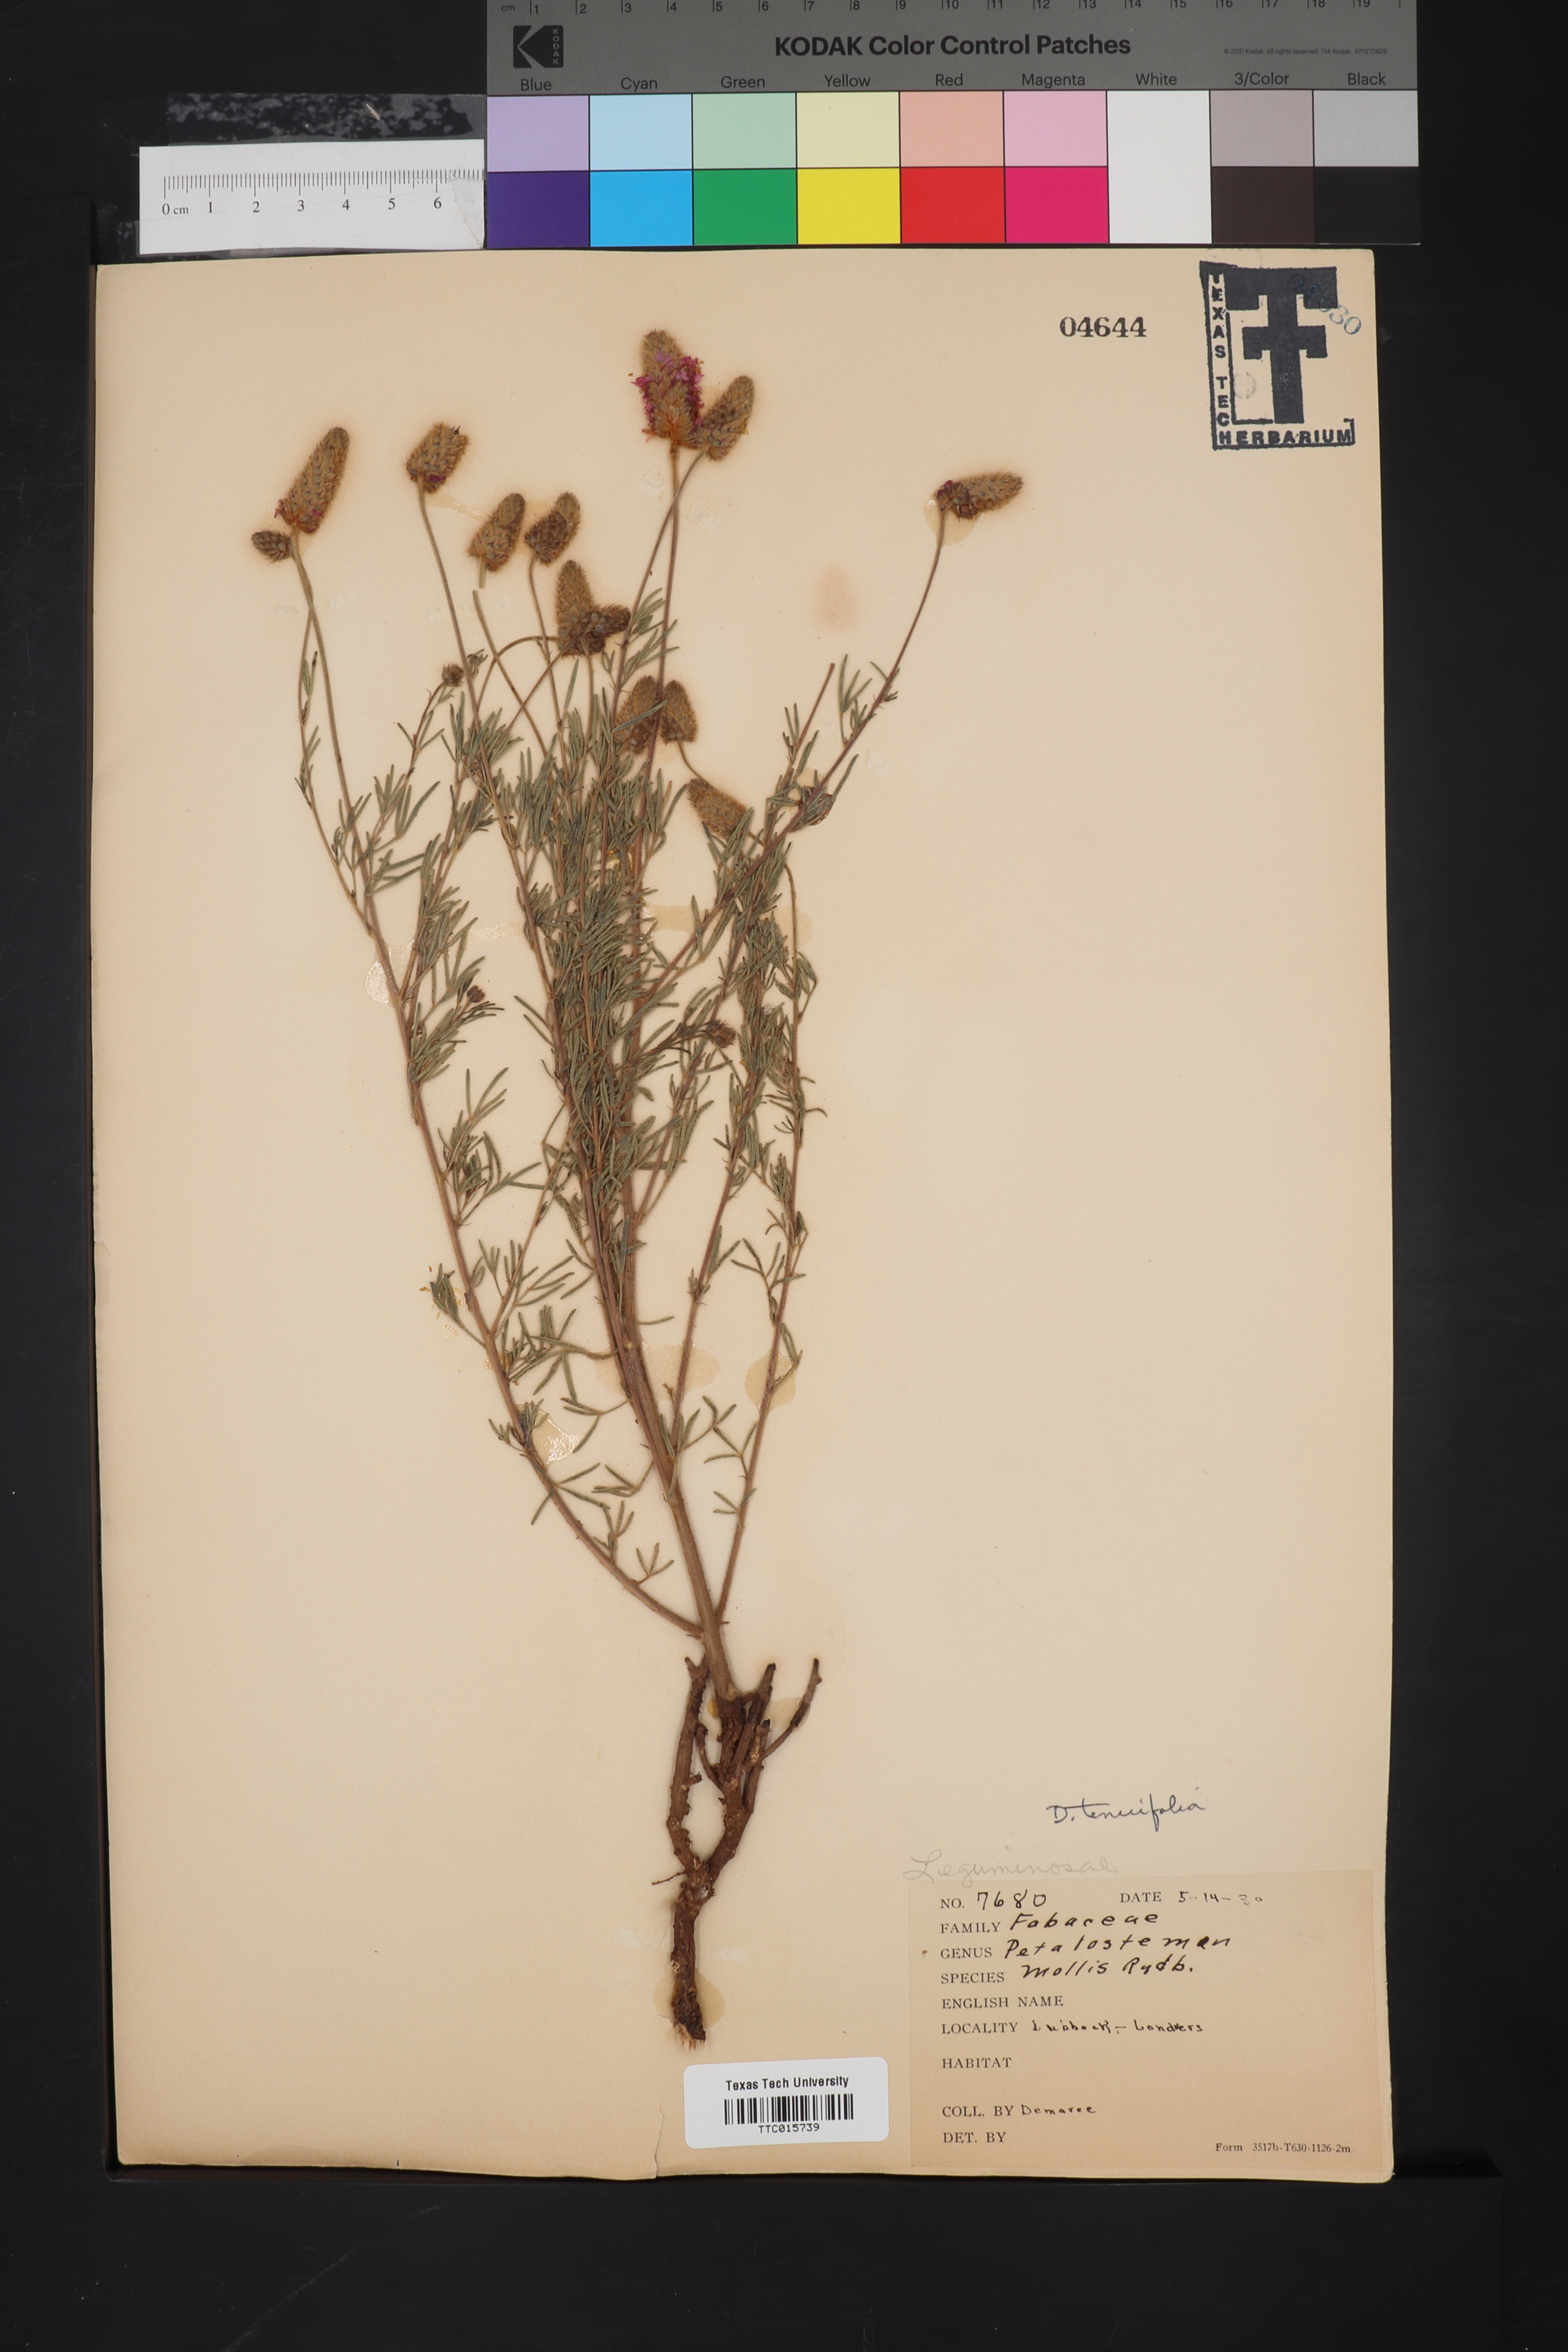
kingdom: Plantae
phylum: Tracheophyta
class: Magnoliopsida
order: Fabales
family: Fabaceae
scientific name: Fabaceae
